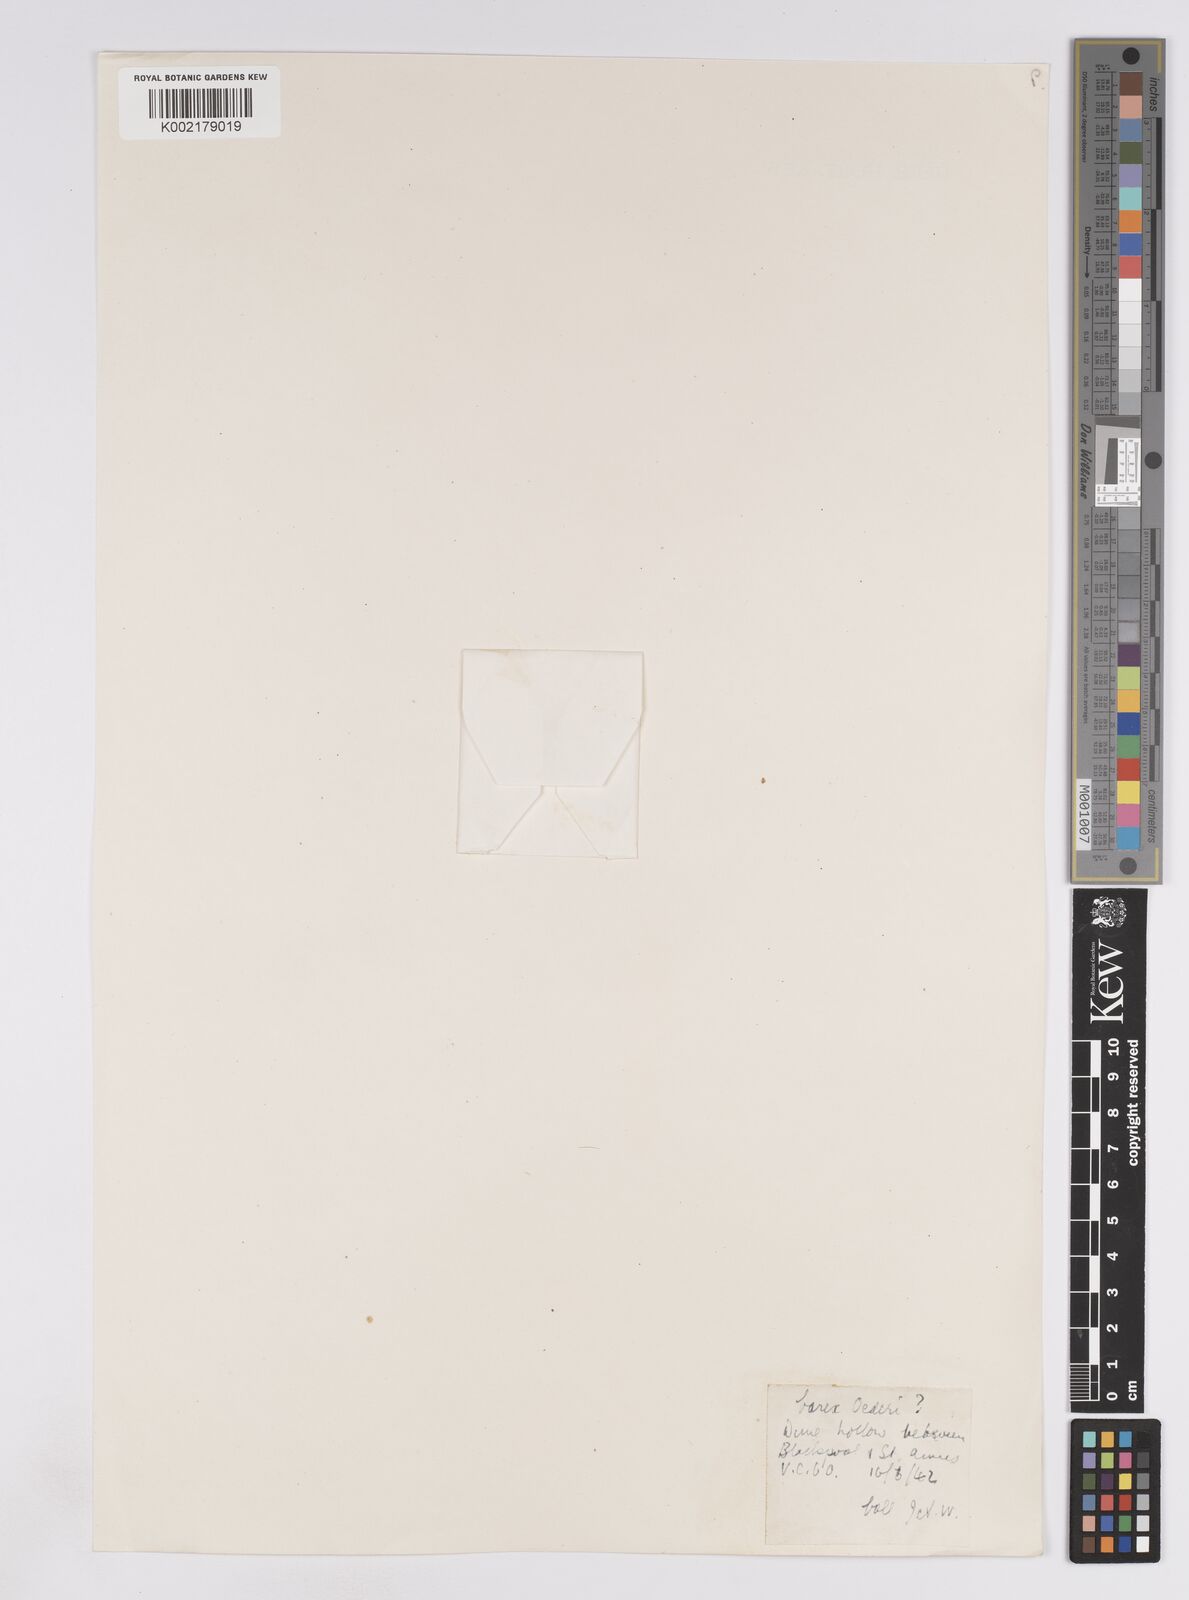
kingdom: Plantae
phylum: Tracheophyta
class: Liliopsida
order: Poales
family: Cyperaceae
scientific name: Cyperaceae
